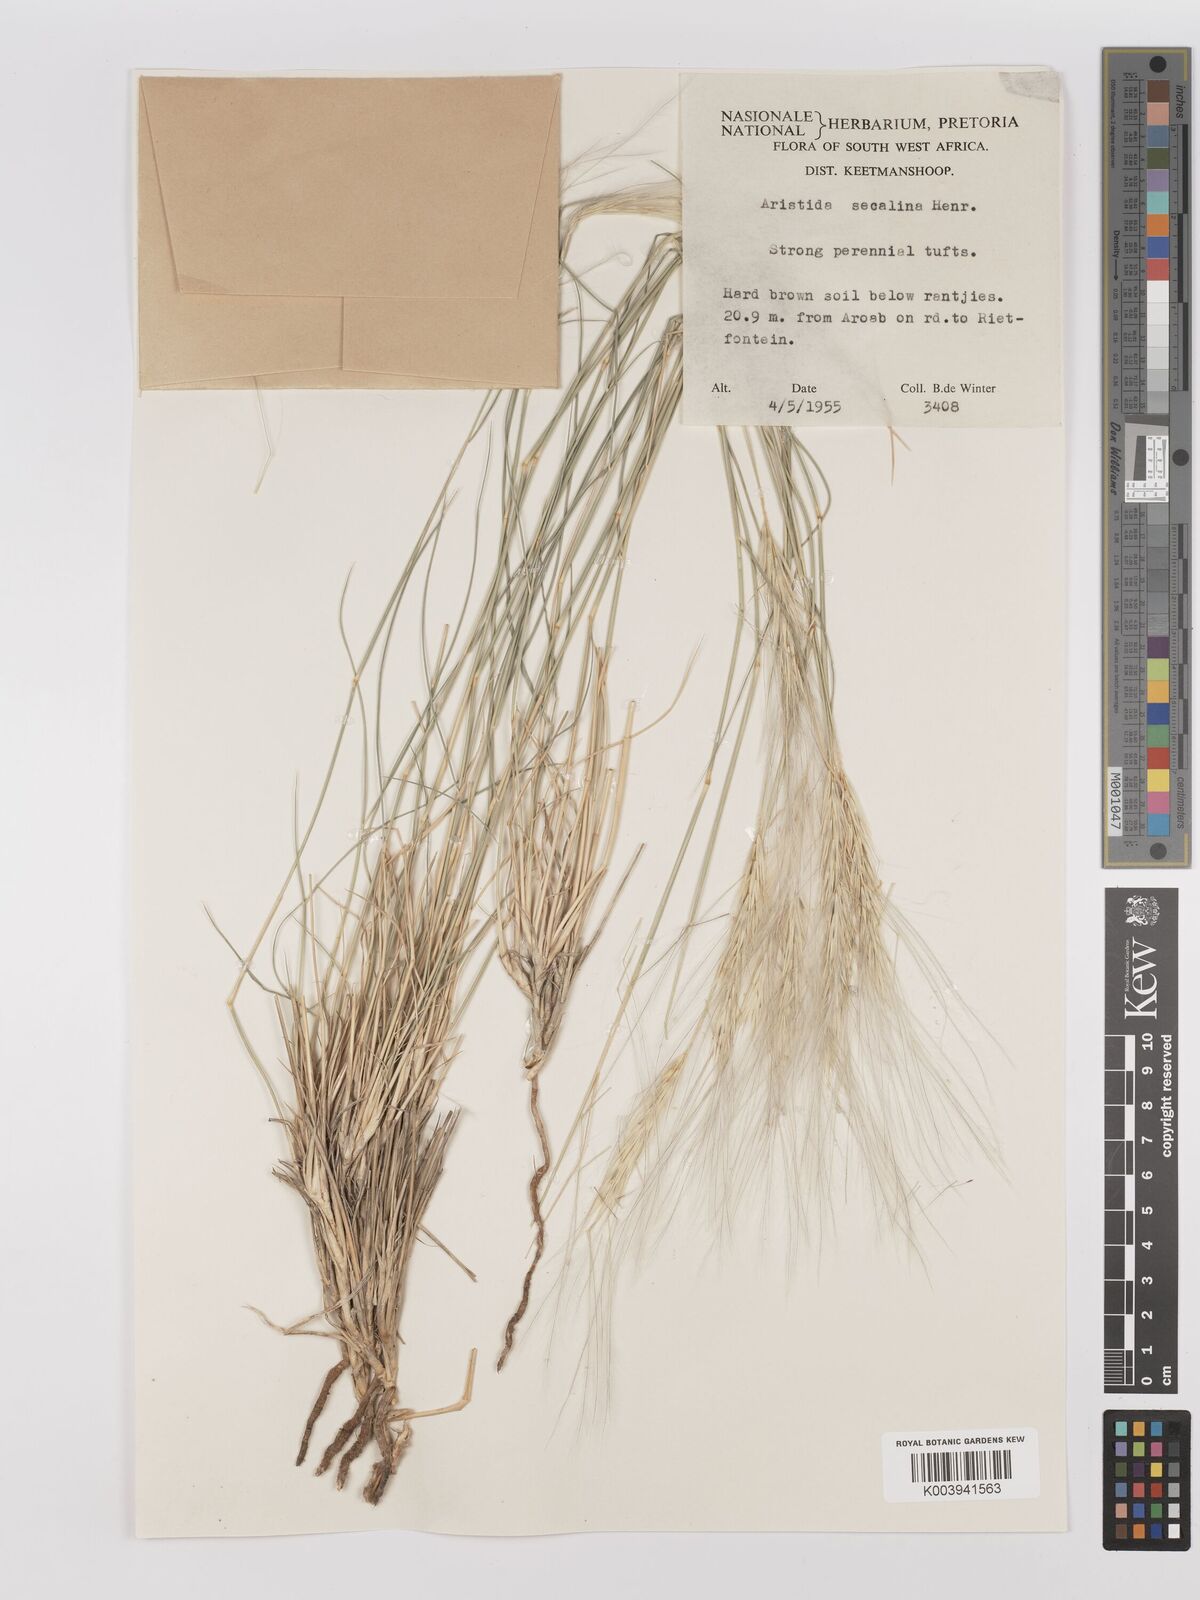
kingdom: Plantae
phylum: Tracheophyta
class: Liliopsida
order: Poales
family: Poaceae
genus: Stipagrostis
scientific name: Stipagrostis hochstetteriana
